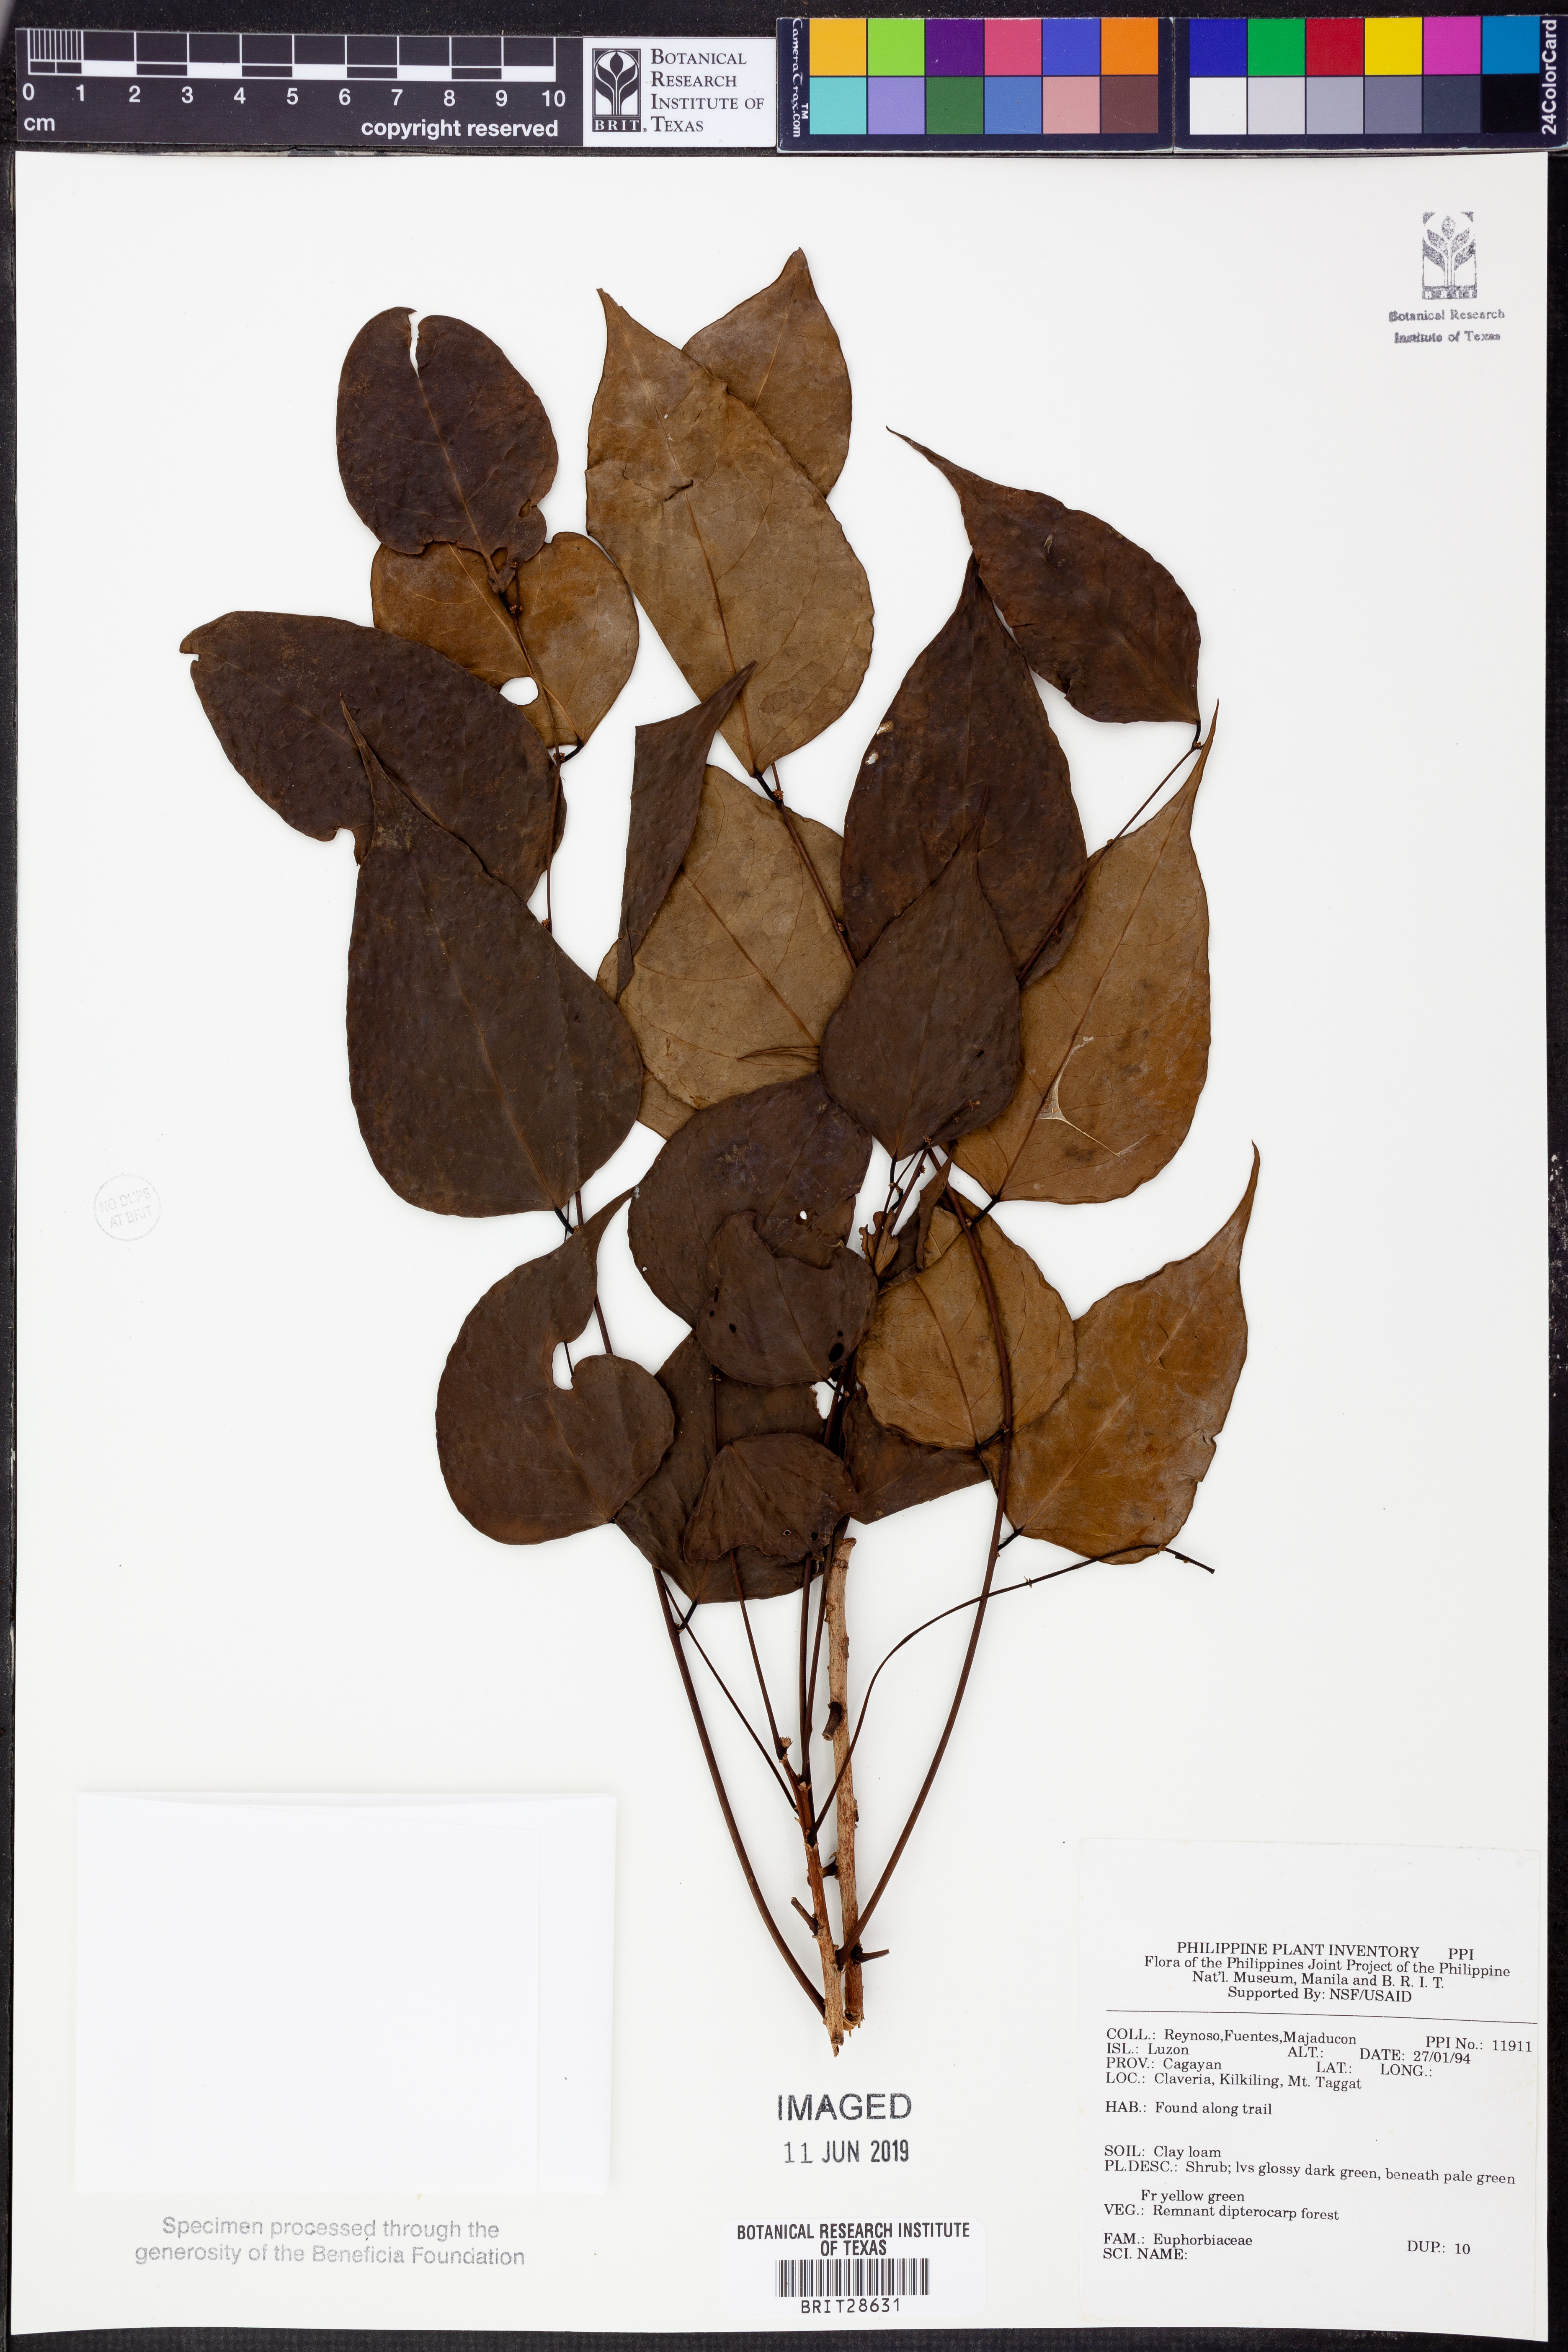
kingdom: Plantae
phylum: Tracheophyta
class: Magnoliopsida
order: Malpighiales
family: Euphorbiaceae
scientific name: Euphorbiaceae
